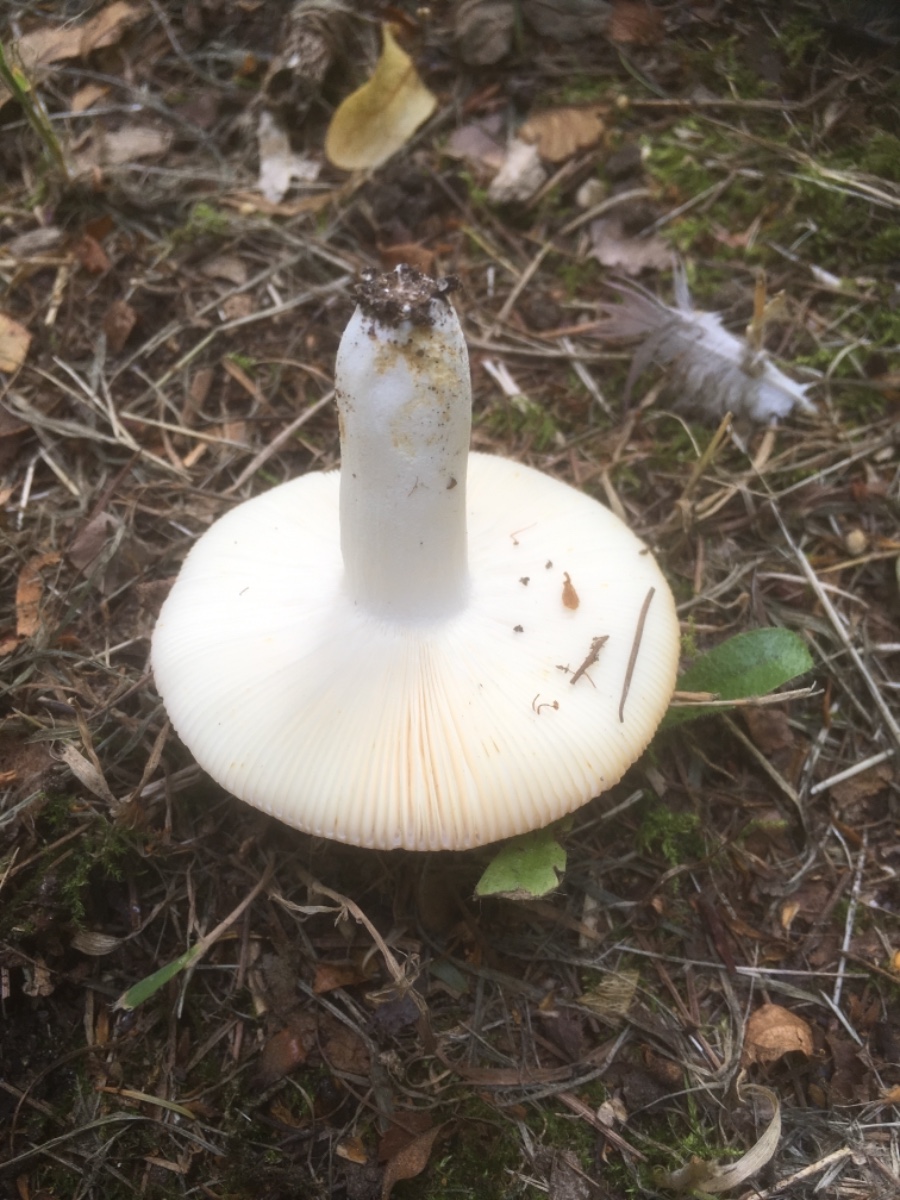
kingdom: Fungi
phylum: Basidiomycota
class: Agaricomycetes
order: Russulales
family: Russulaceae
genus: Russula
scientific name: Russula vesca
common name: spiselig skørhat
